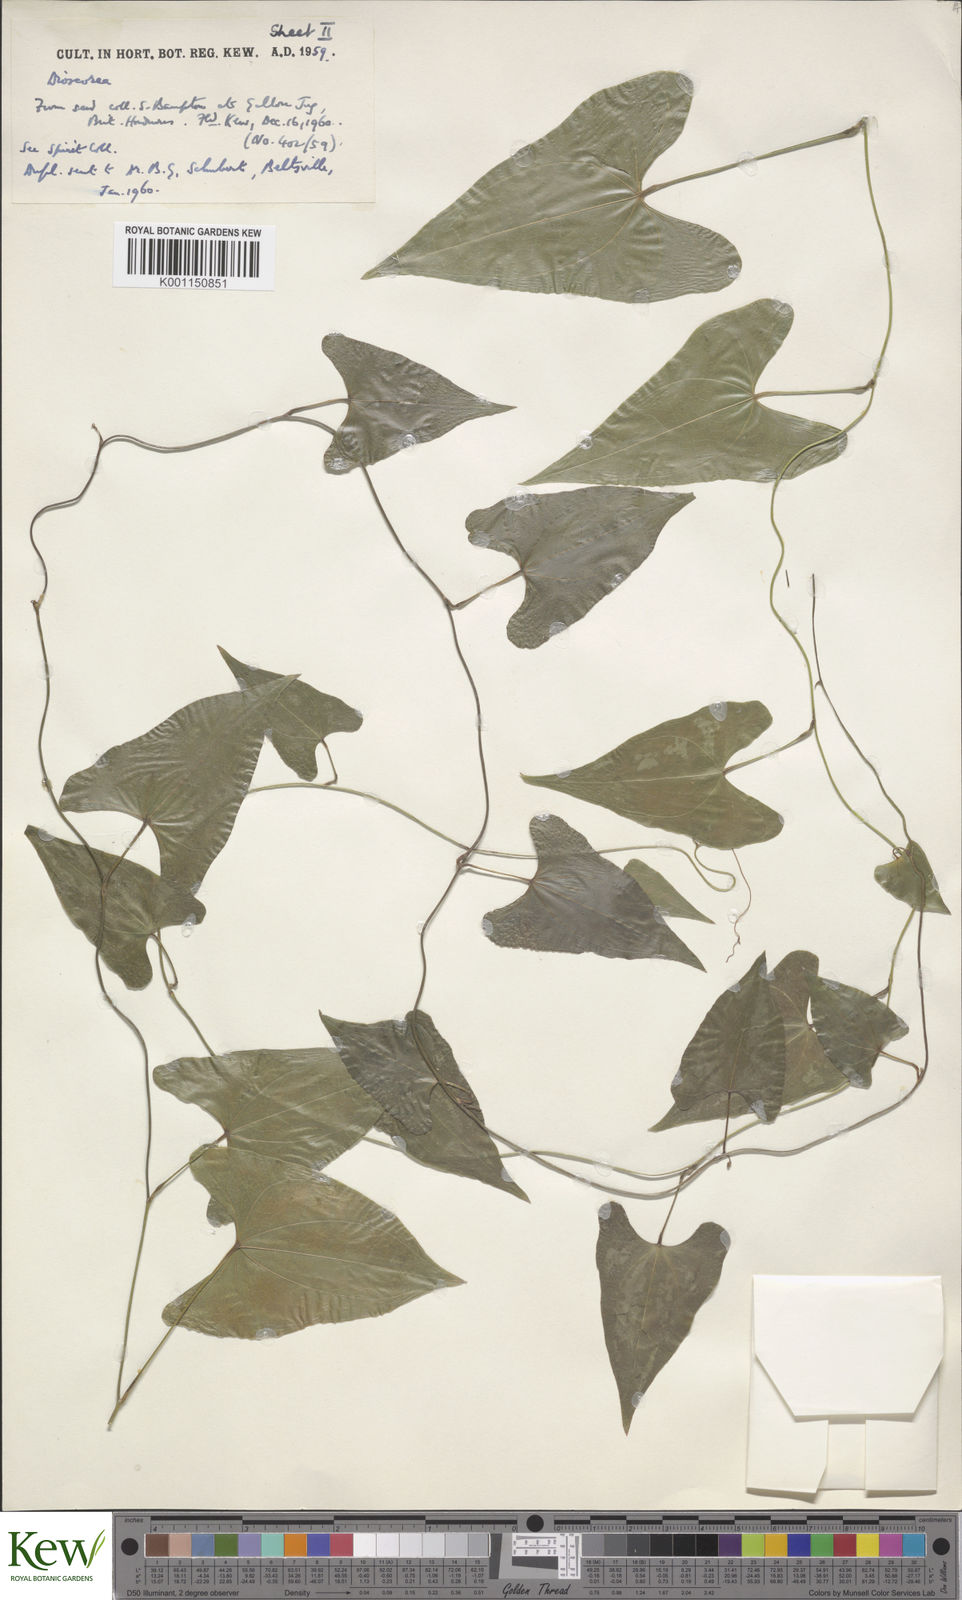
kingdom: Plantae
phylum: Tracheophyta
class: Liliopsida
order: Dioscoreales
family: Dioscoreaceae
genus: Dioscorea
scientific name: Dioscorea
